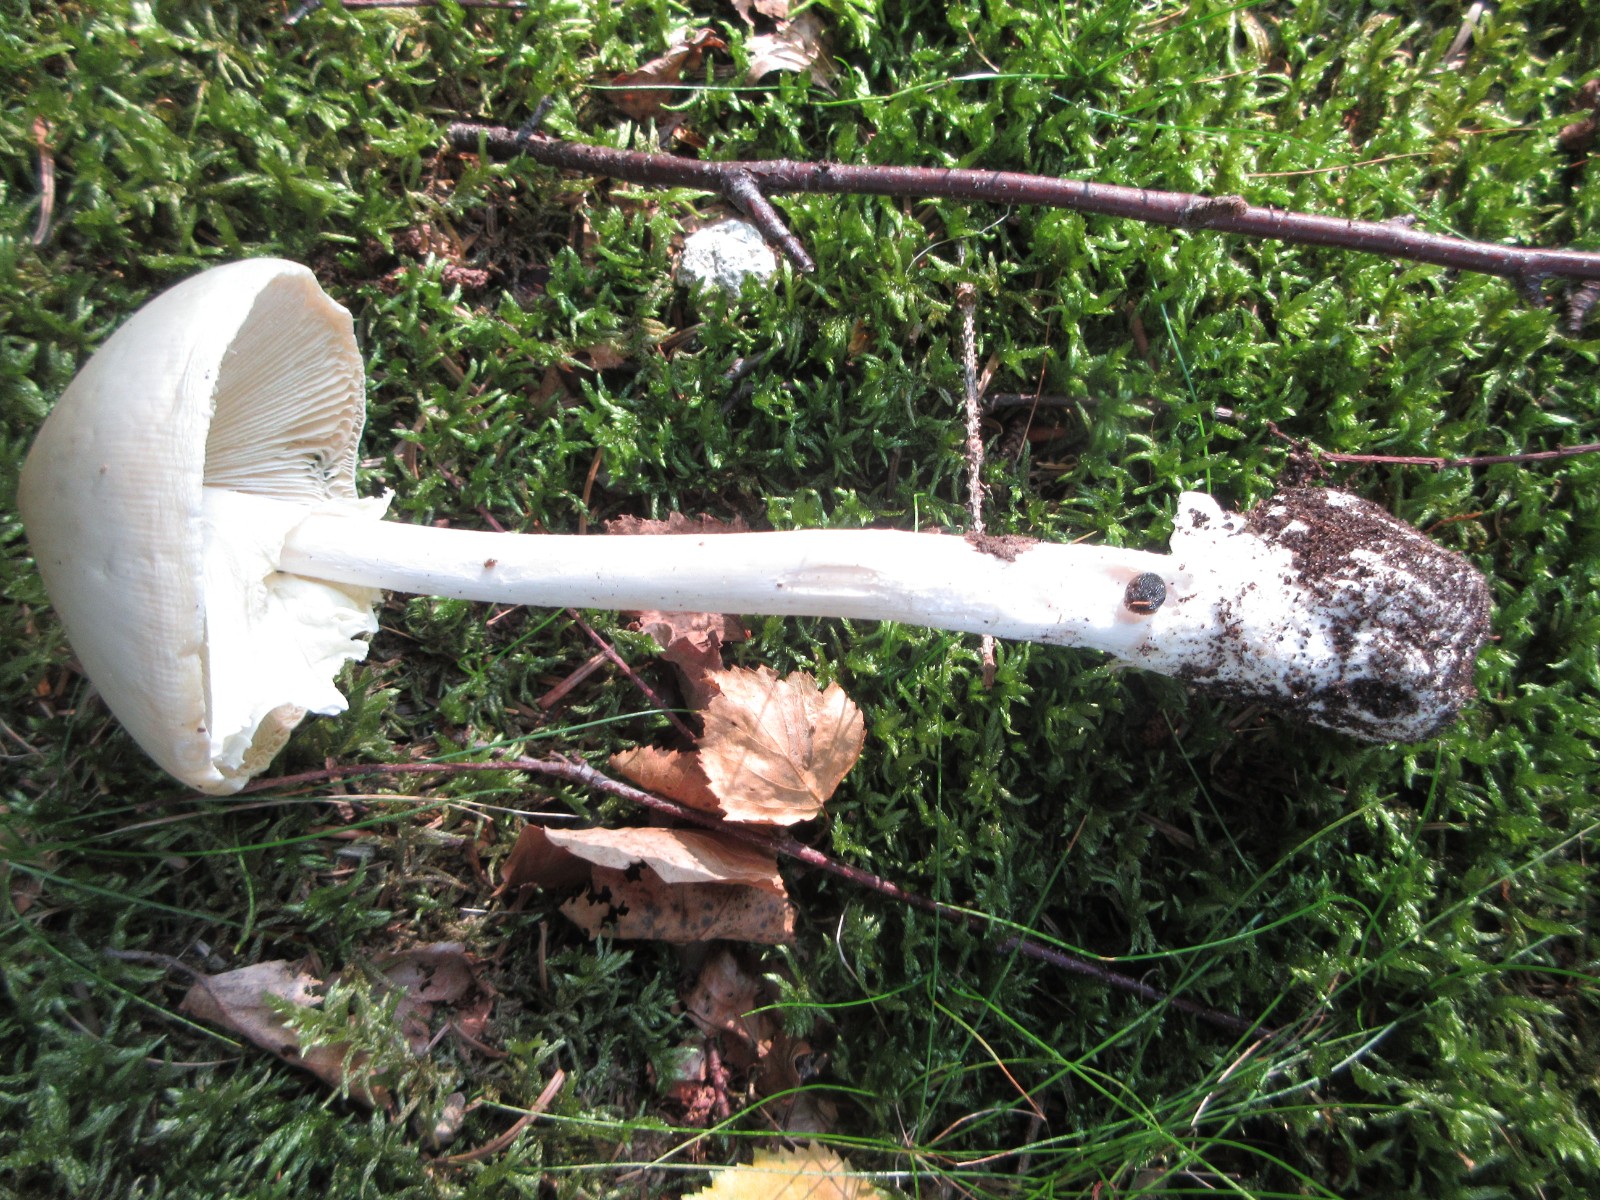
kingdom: Fungi
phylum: Basidiomycota
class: Agaricomycetes
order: Agaricales
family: Amanitaceae
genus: Amanita
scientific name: Amanita virosa
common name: snehvid fluesvamp
